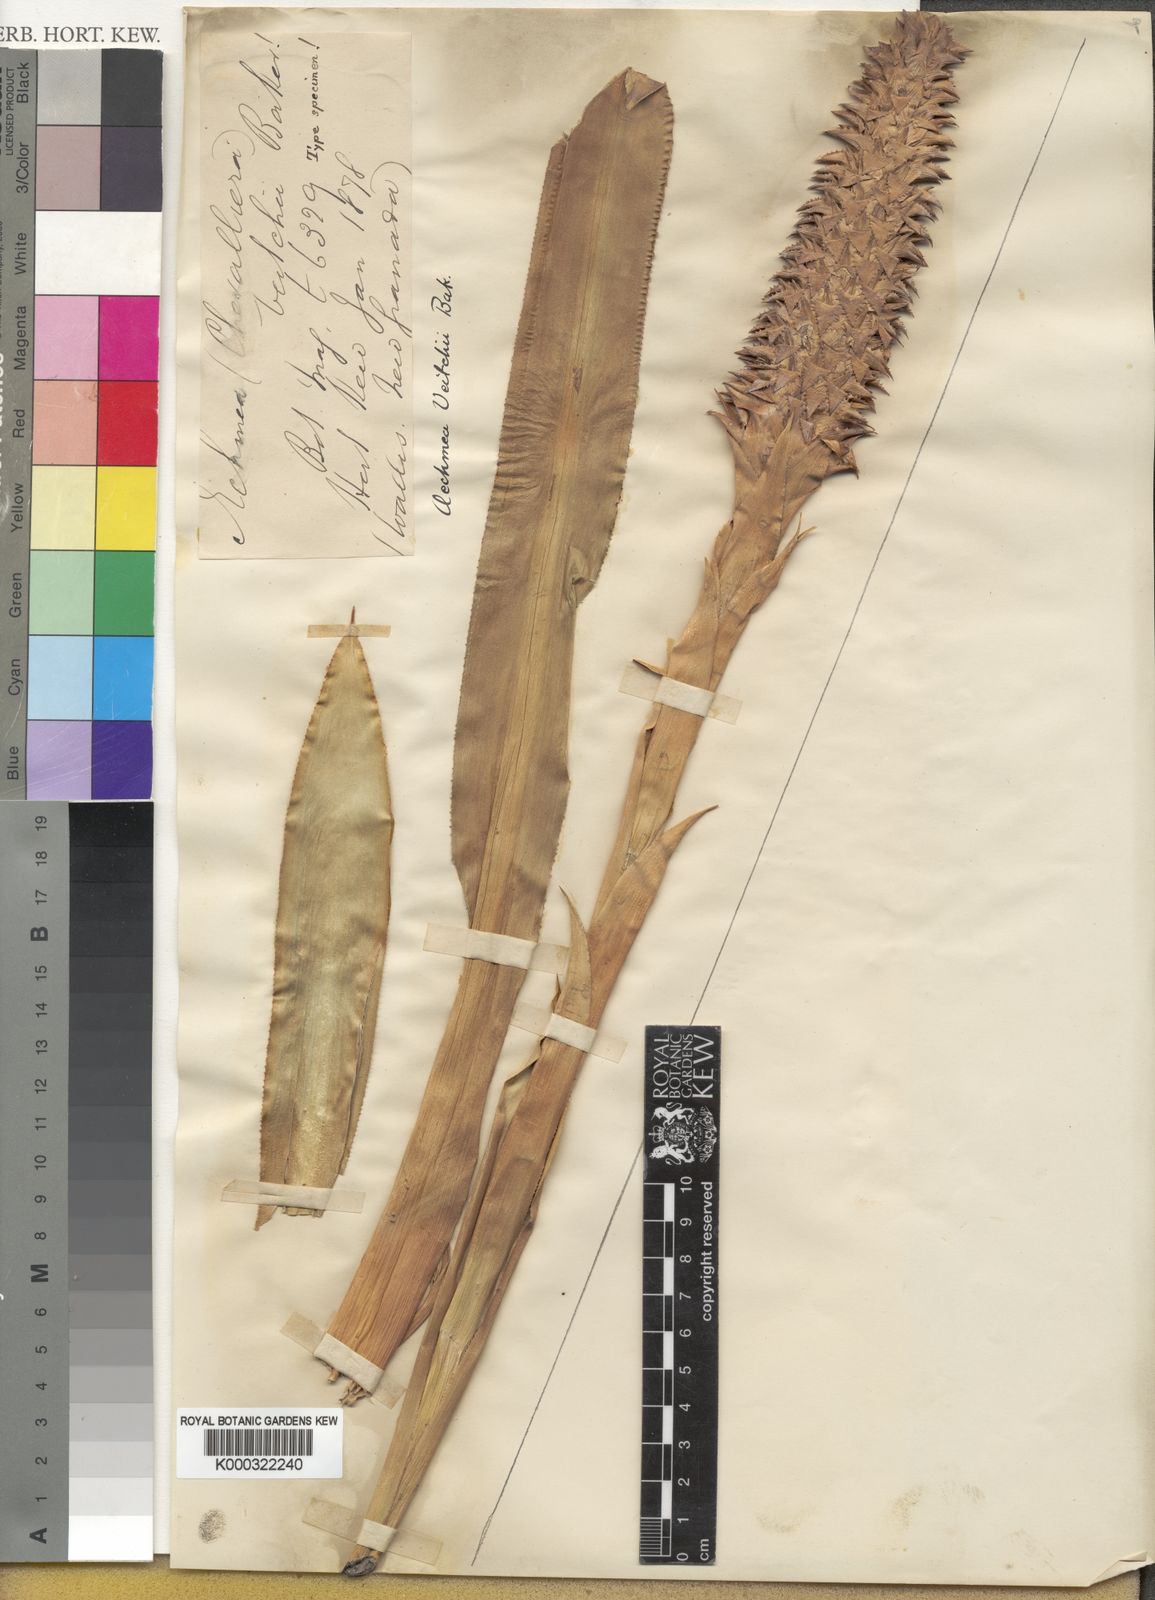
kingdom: Plantae
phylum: Tracheophyta
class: Liliopsida
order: Poales
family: Bromeliaceae
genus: Ronnbergia
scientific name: Ronnbergia veitchii
